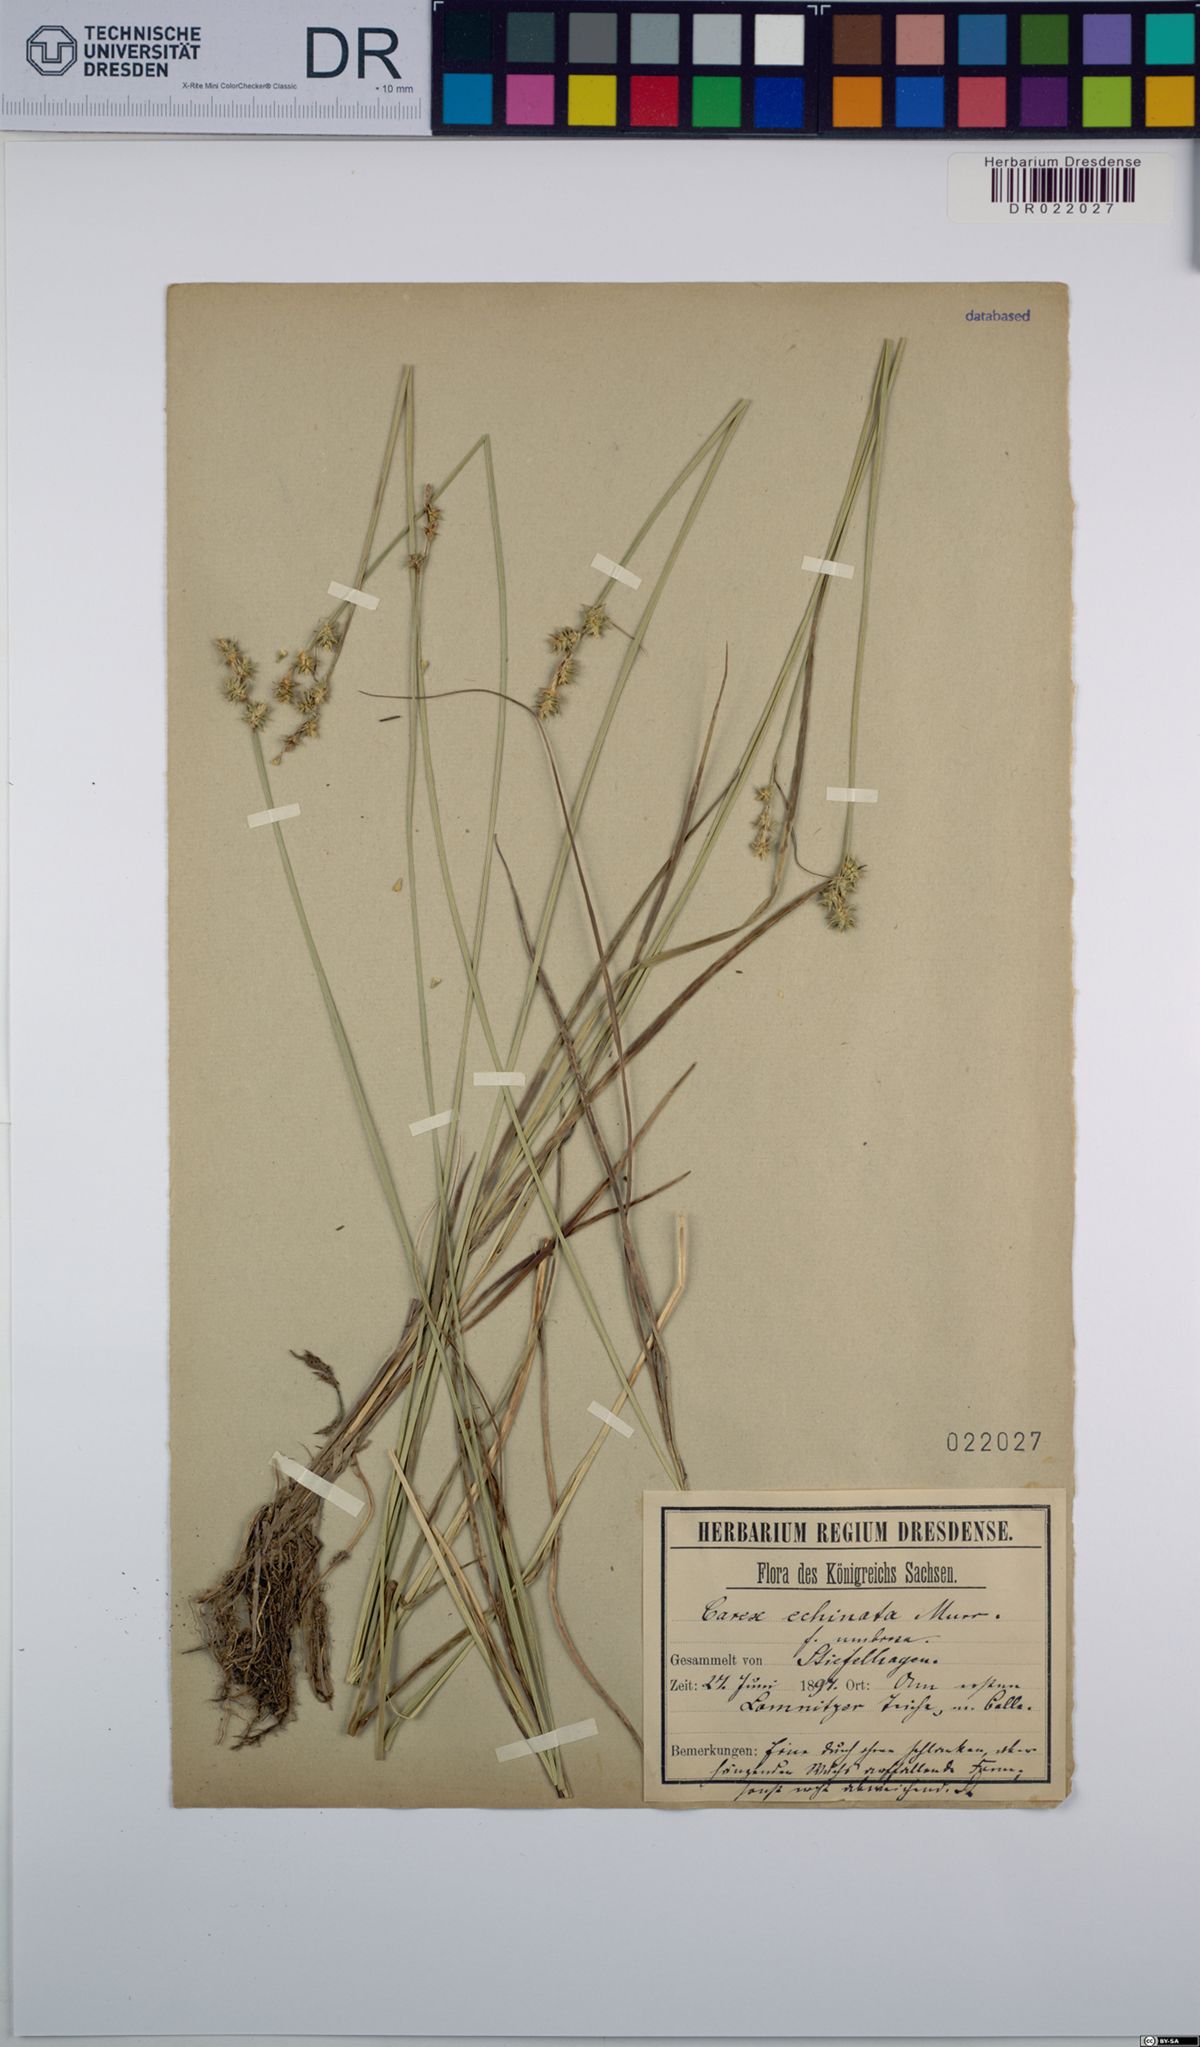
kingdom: Plantae
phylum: Tracheophyta
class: Liliopsida
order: Poales
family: Cyperaceae
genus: Carex
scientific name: Carex echinata
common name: Star sedge
